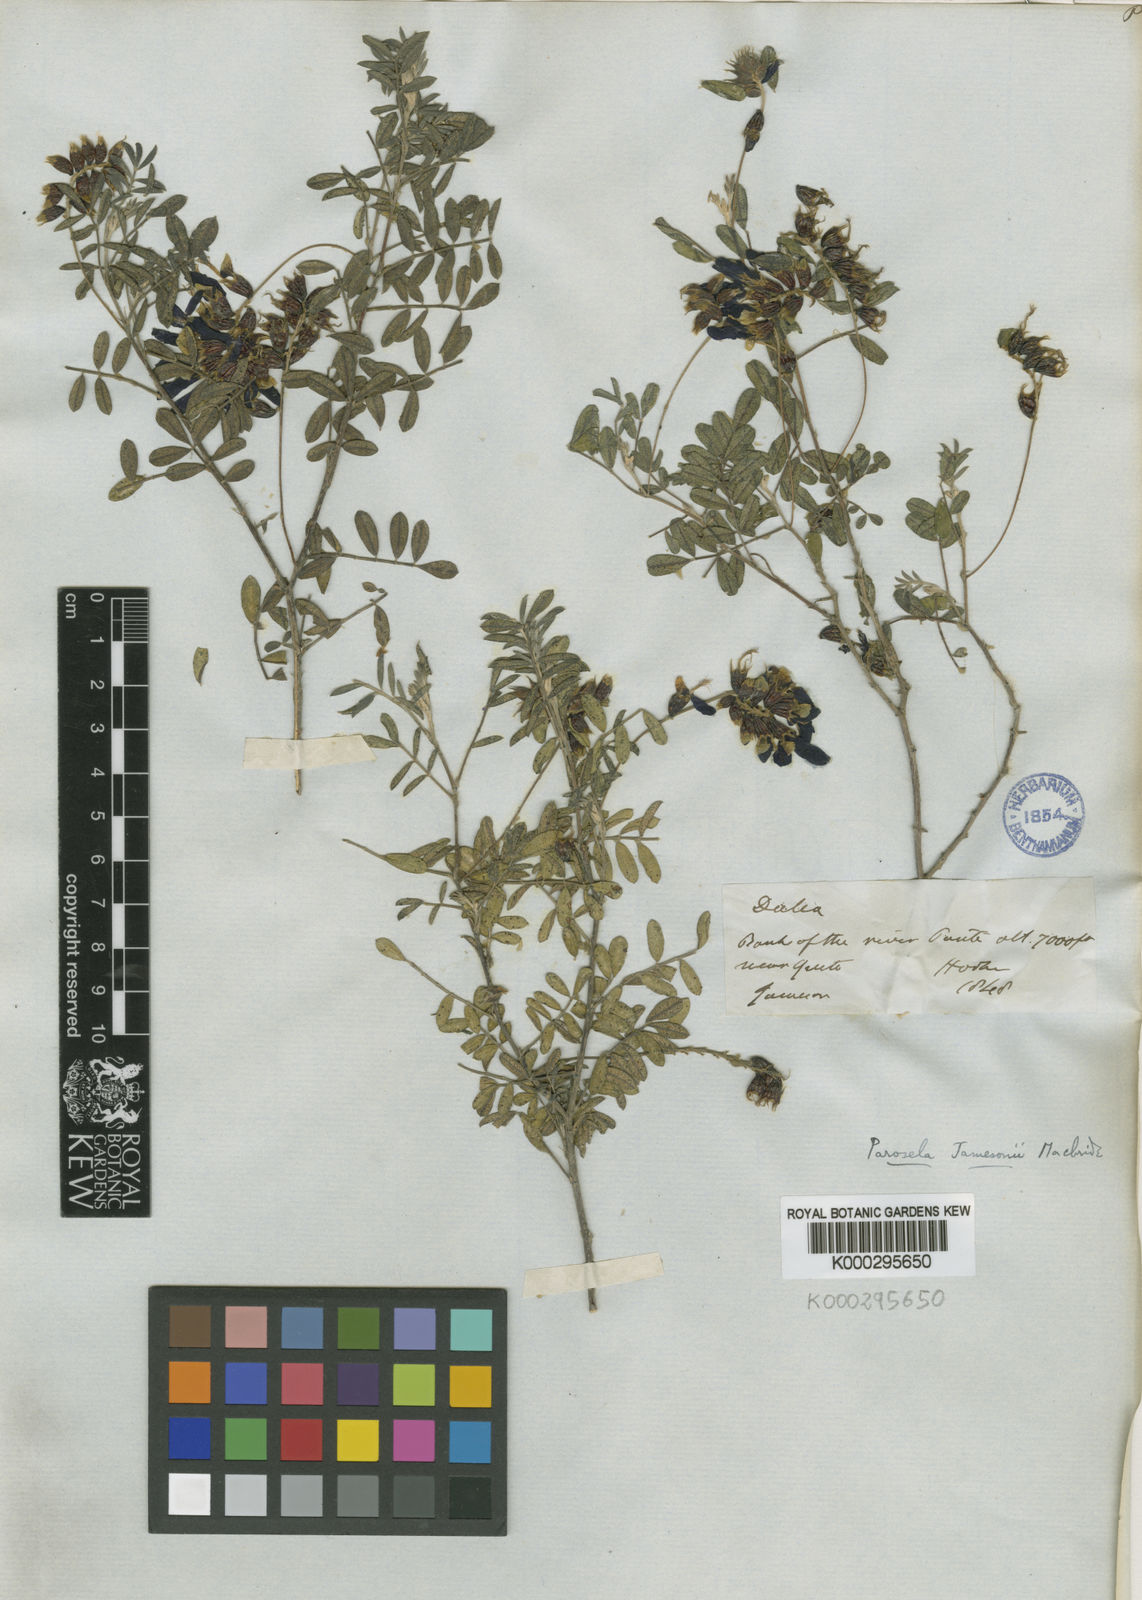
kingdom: Plantae
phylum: Tracheophyta
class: Magnoliopsida
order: Fabales
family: Fabaceae
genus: Dalea
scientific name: Dalea jamesonii
